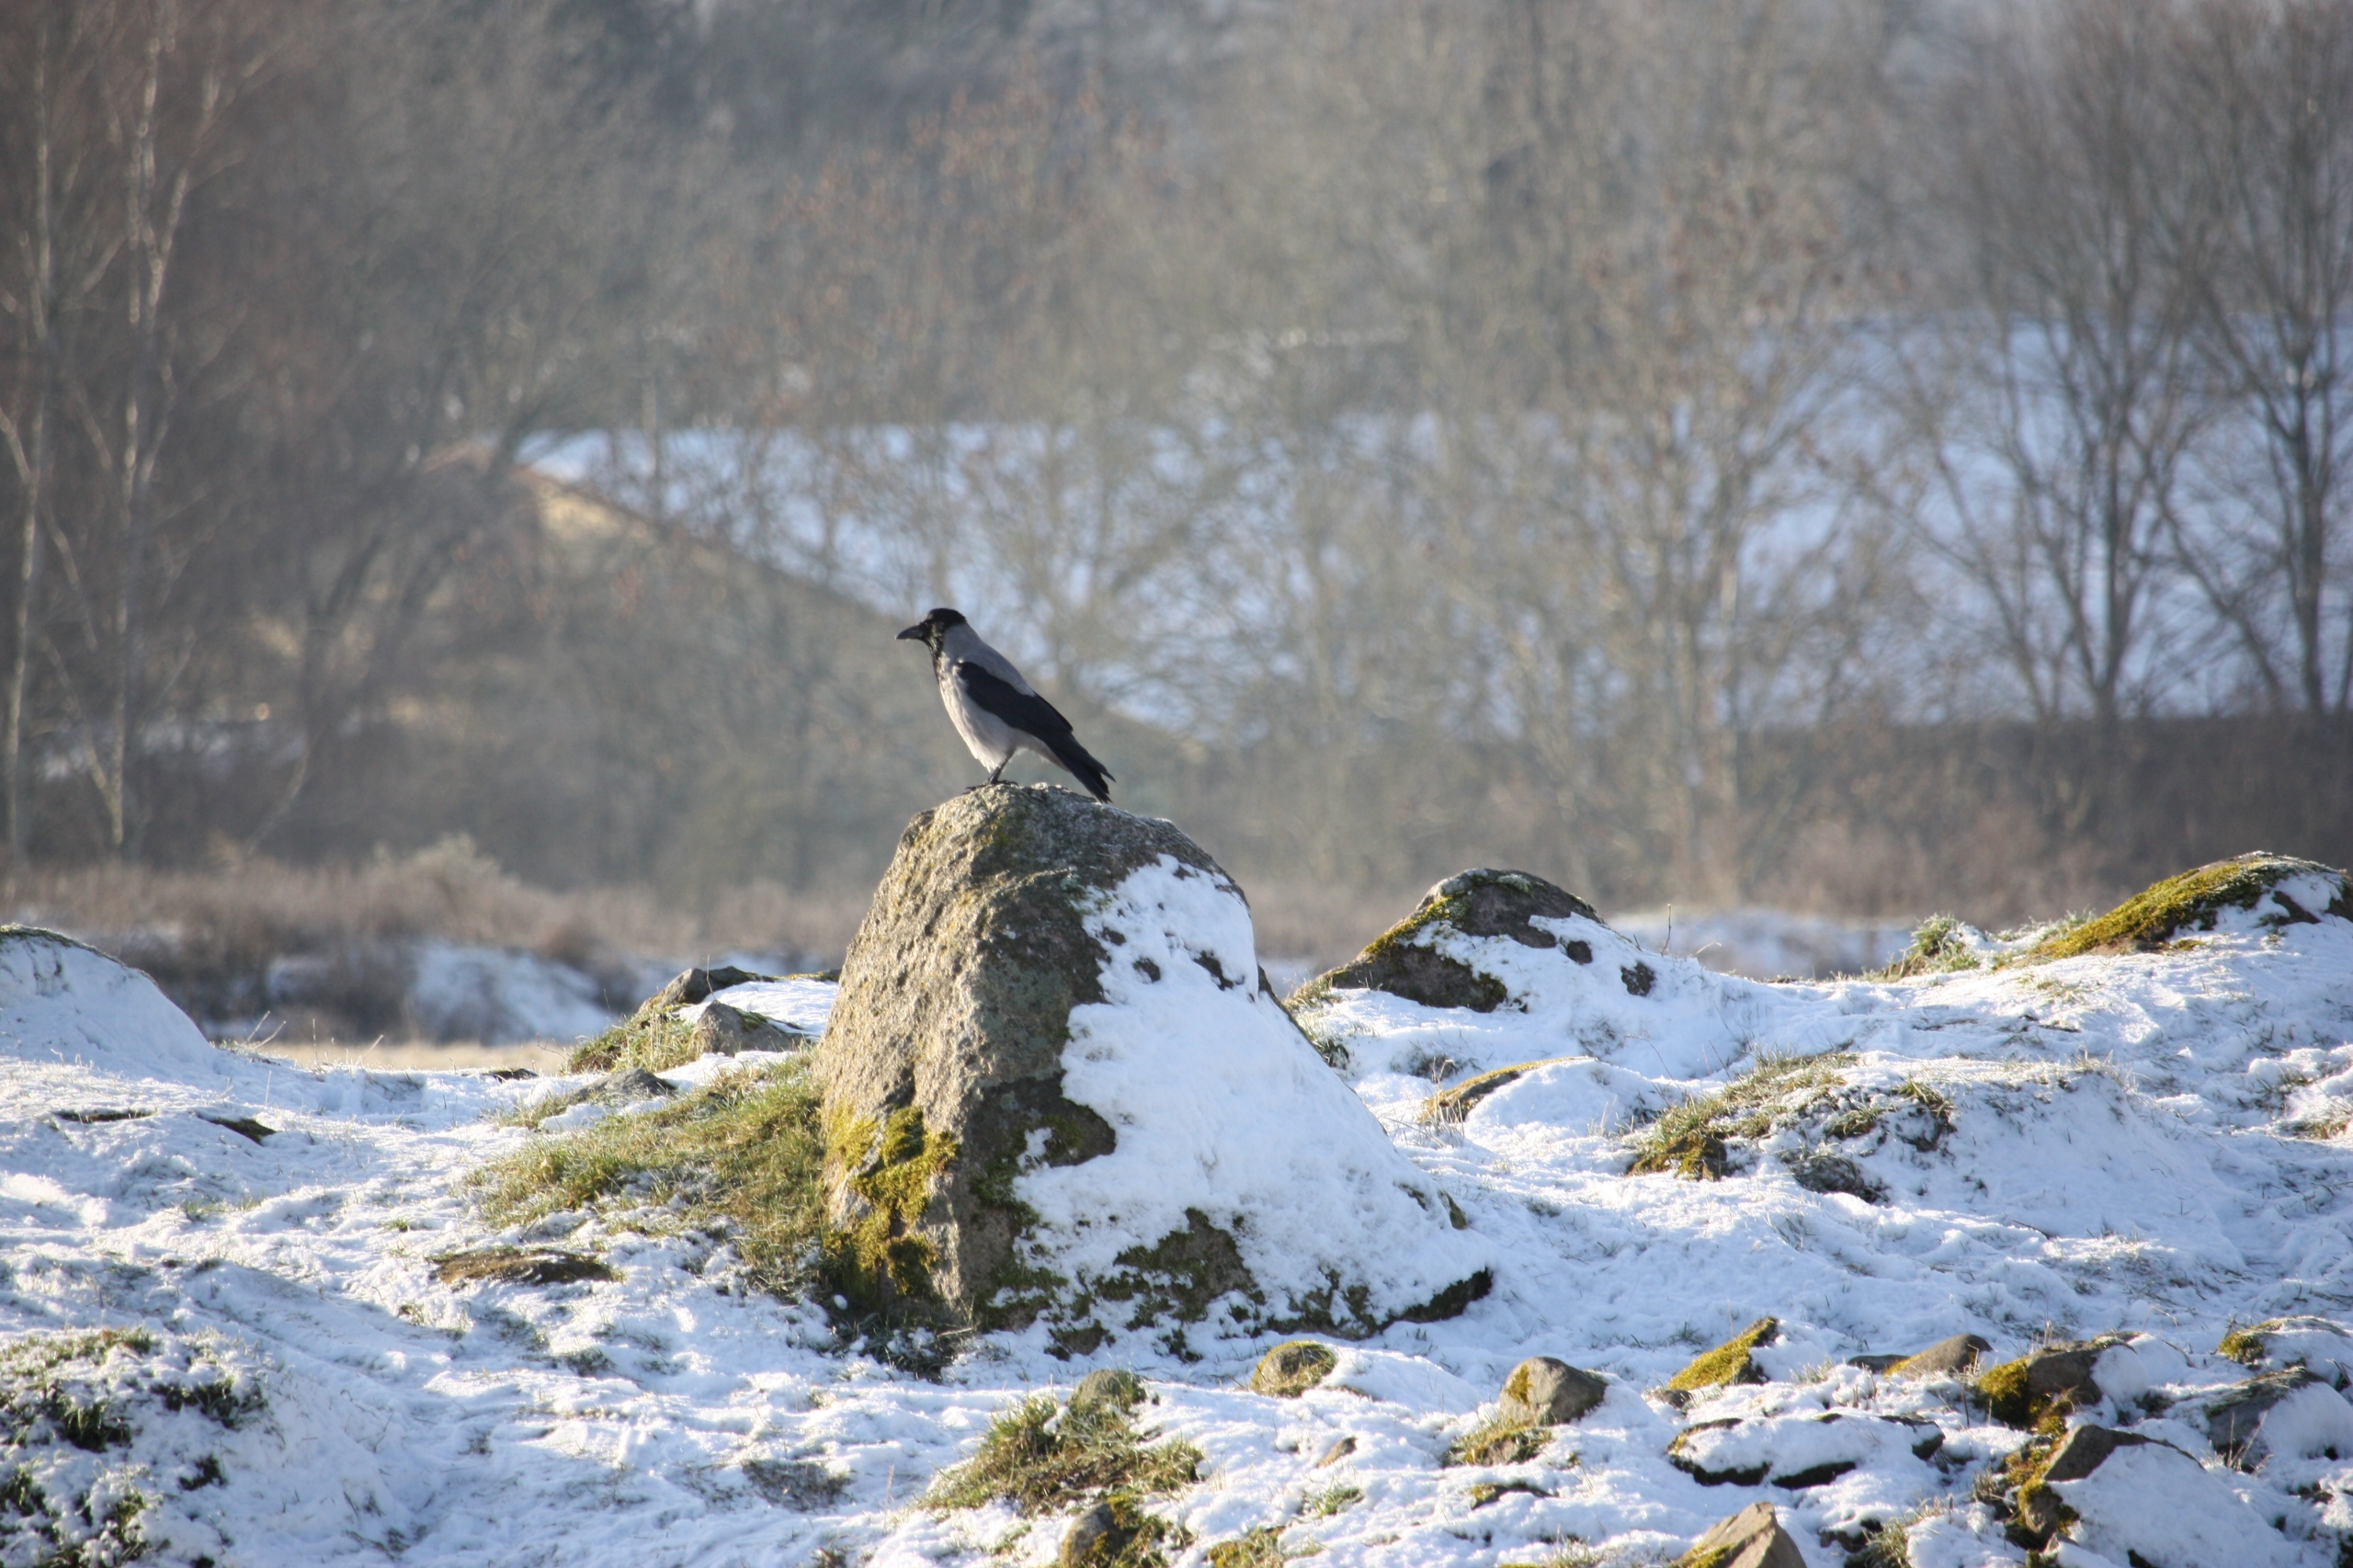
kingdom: Animalia
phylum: Chordata
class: Aves
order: Passeriformes
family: Corvidae
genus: Corvus
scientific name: Corvus cornix
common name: Gråkrage
